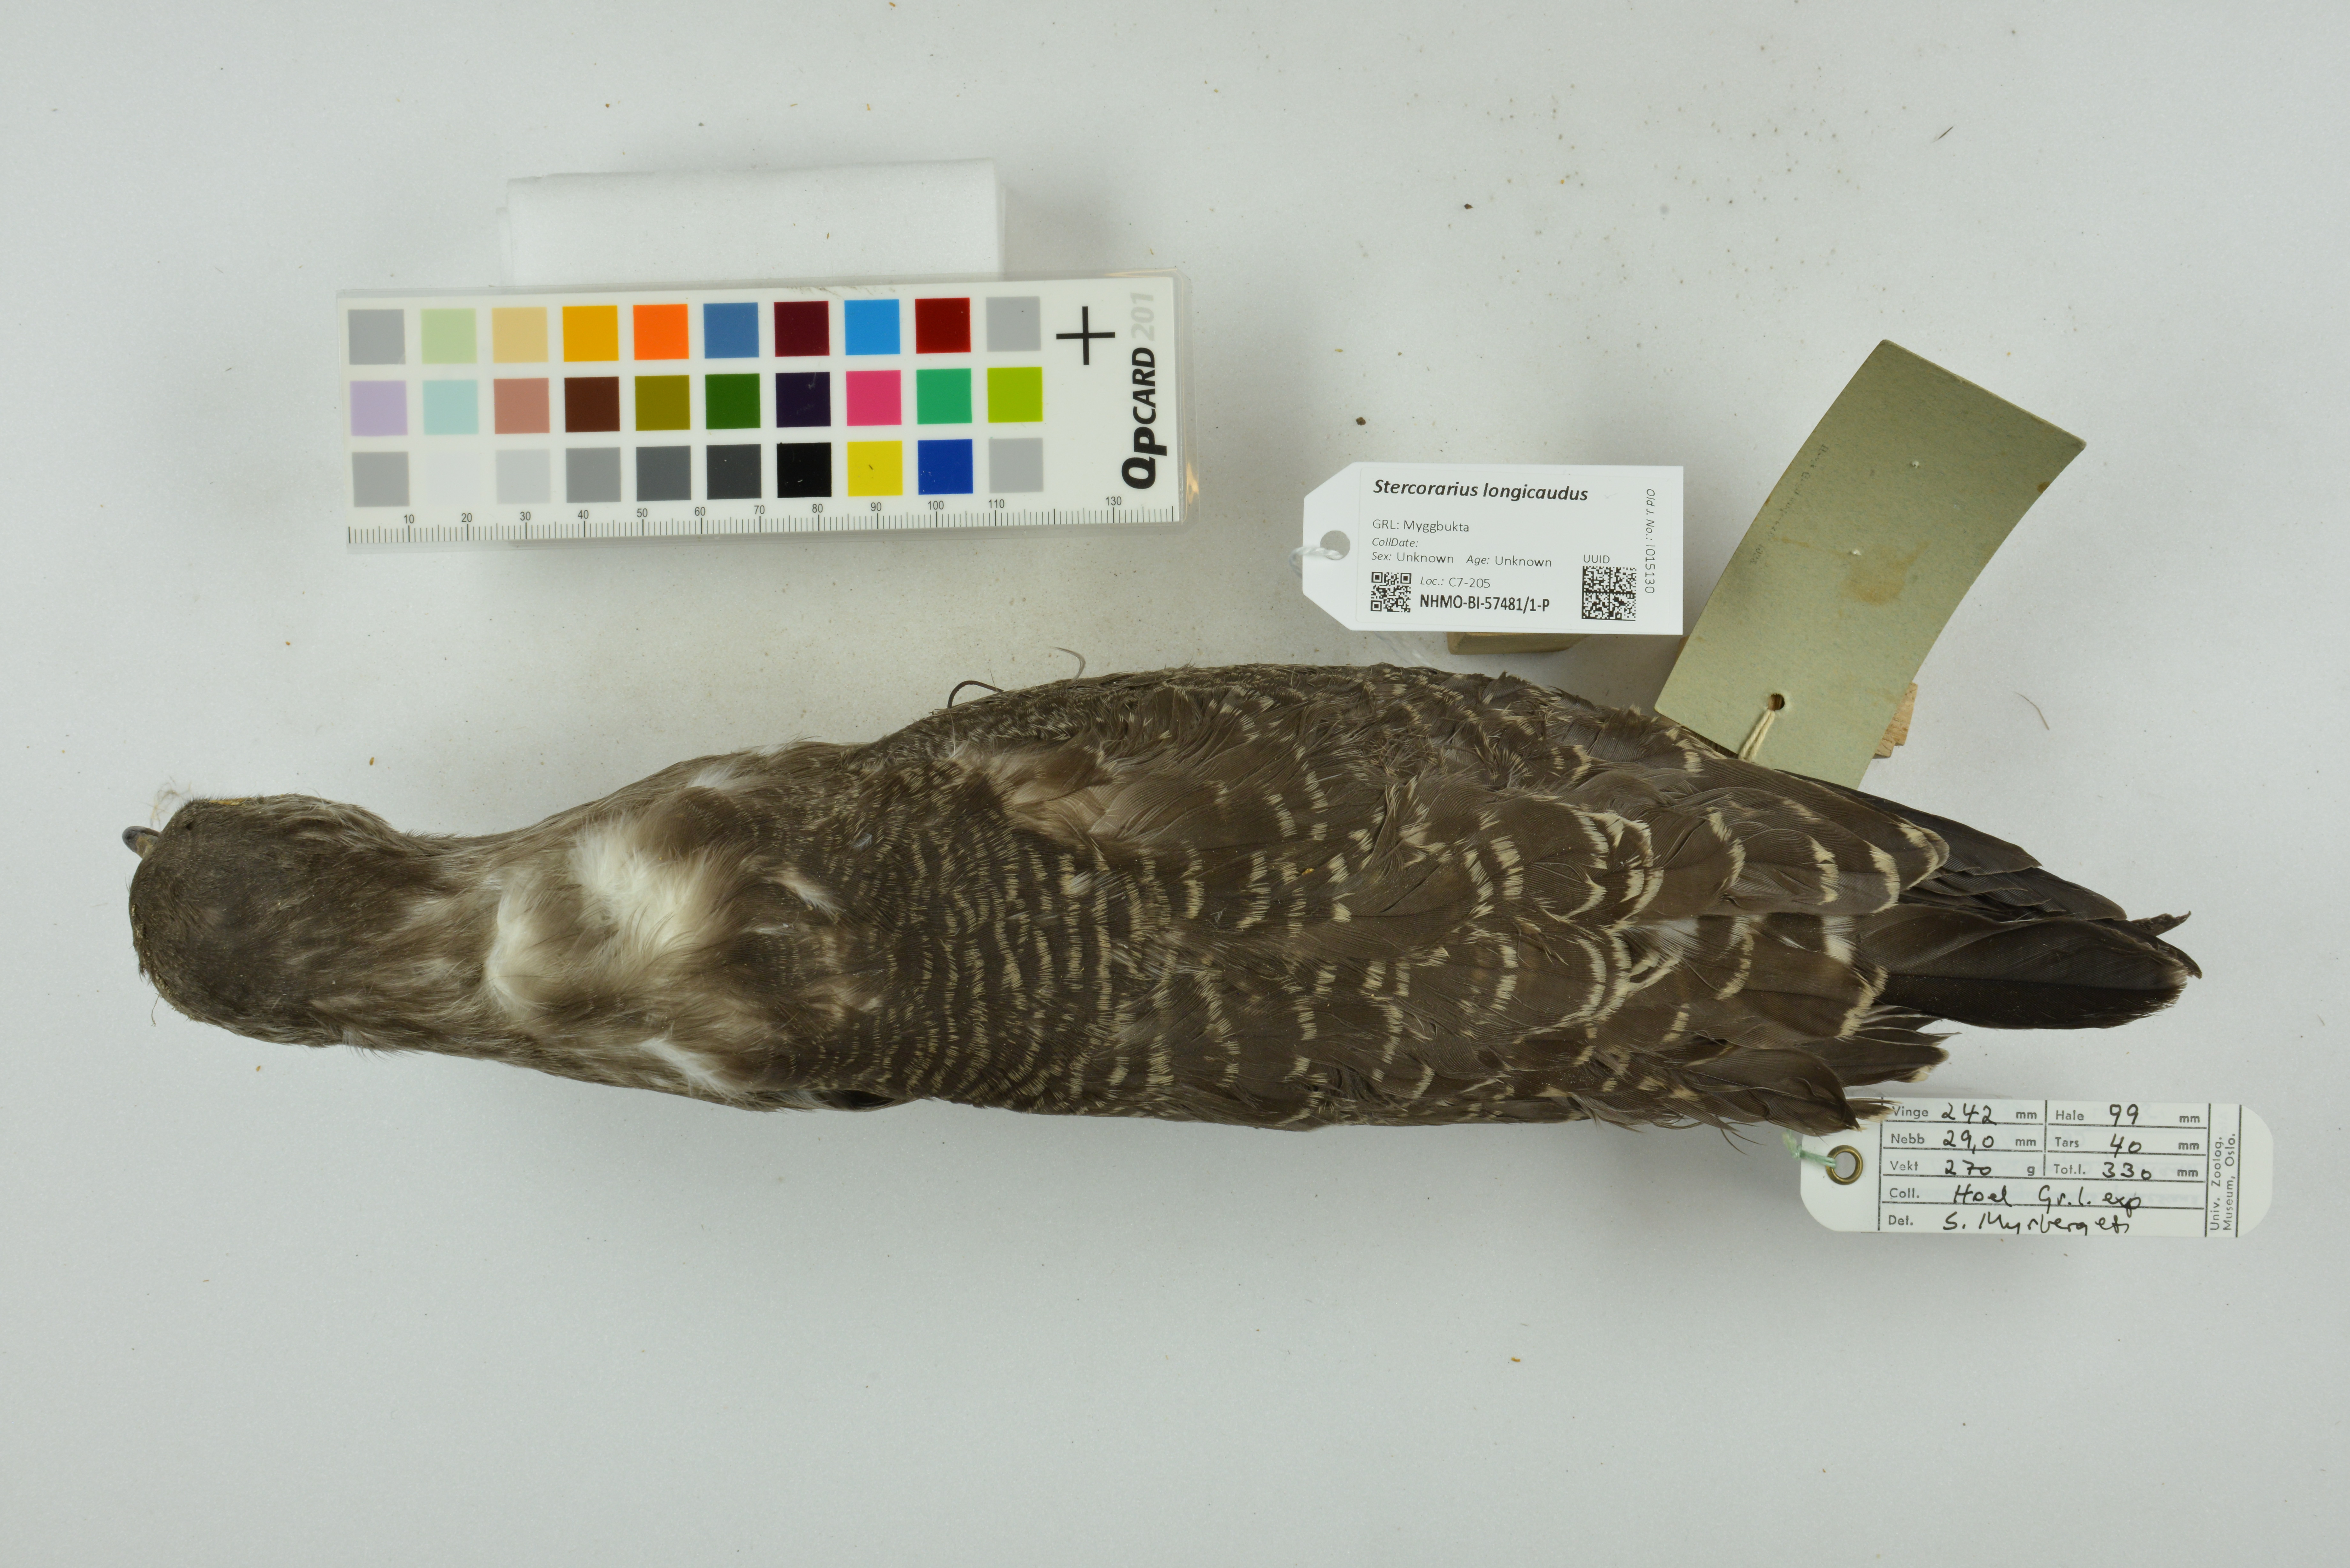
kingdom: Animalia
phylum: Chordata
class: Aves
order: Charadriiformes
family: Stercorariidae
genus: Stercorarius
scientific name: Stercorarius longicaudus
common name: Long-tailed jaeger
